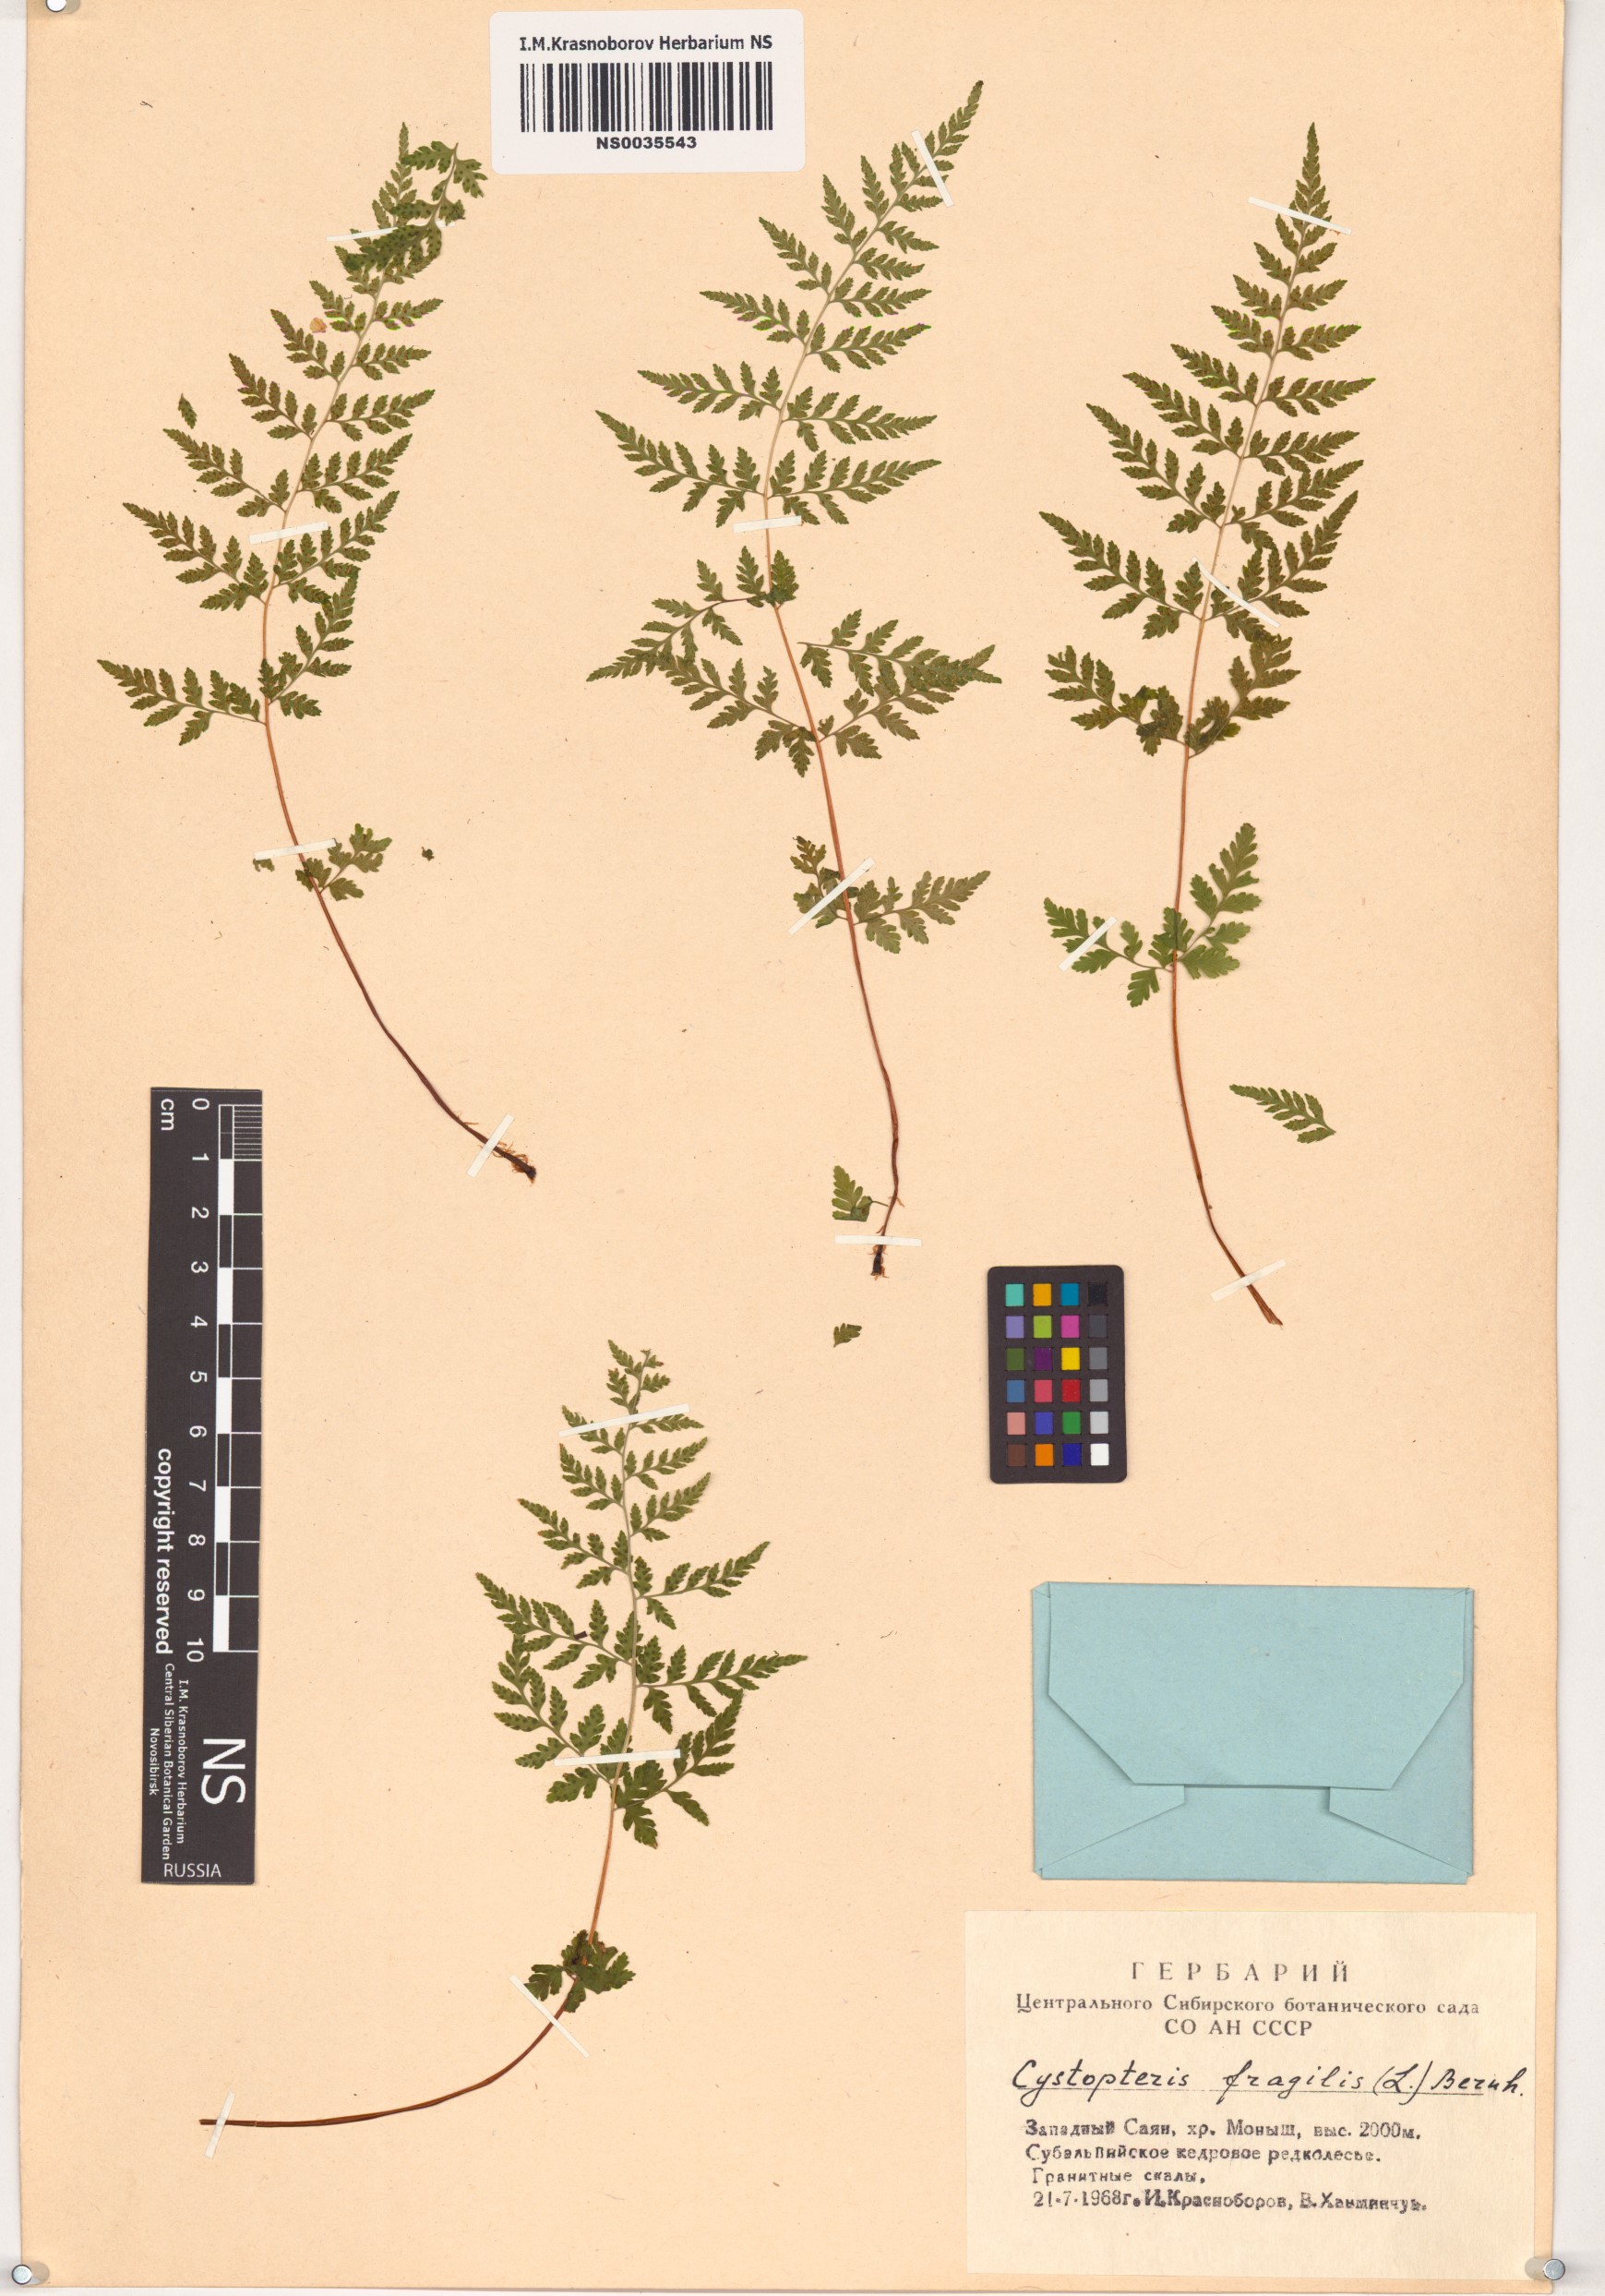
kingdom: Plantae
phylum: Tracheophyta
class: Polypodiopsida
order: Polypodiales
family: Cystopteridaceae
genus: Cystopteris
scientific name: Cystopteris fragilis
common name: Brittle bladder fern
